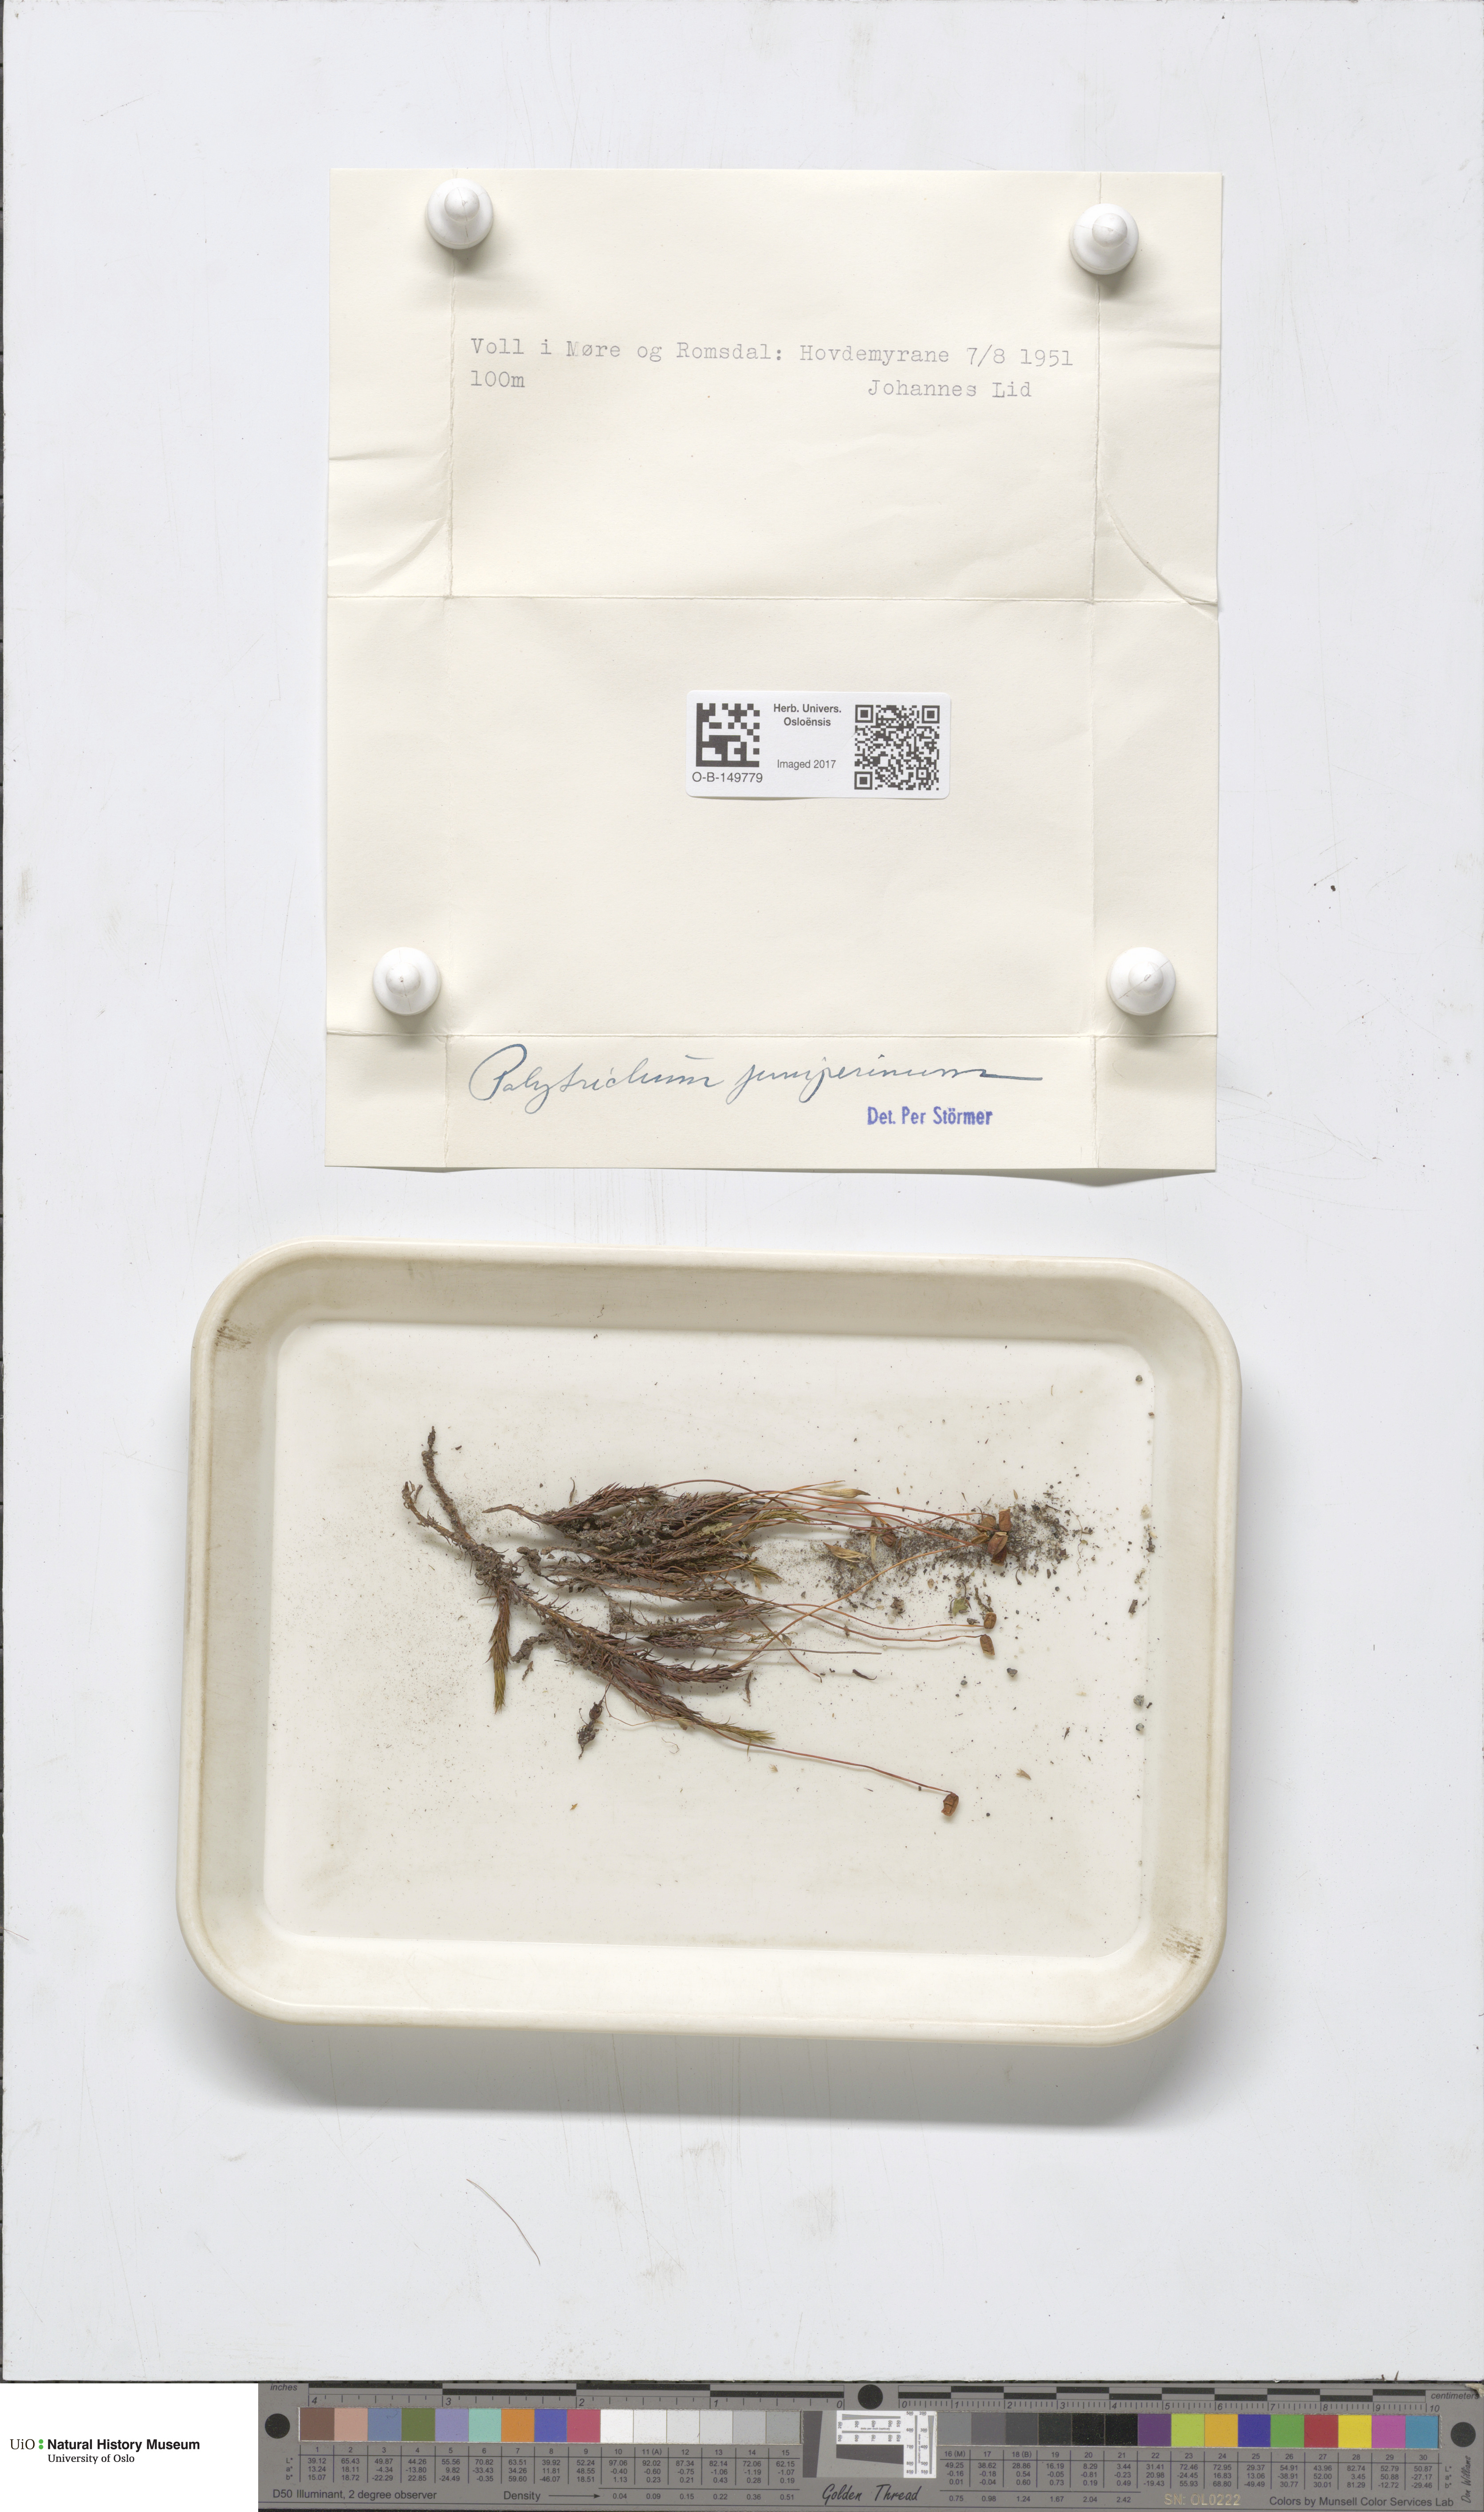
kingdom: Plantae
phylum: Bryophyta
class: Polytrichopsida
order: Polytrichales
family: Polytrichaceae
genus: Polytrichum
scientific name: Polytrichum juniperinum
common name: Juniper haircap moss
